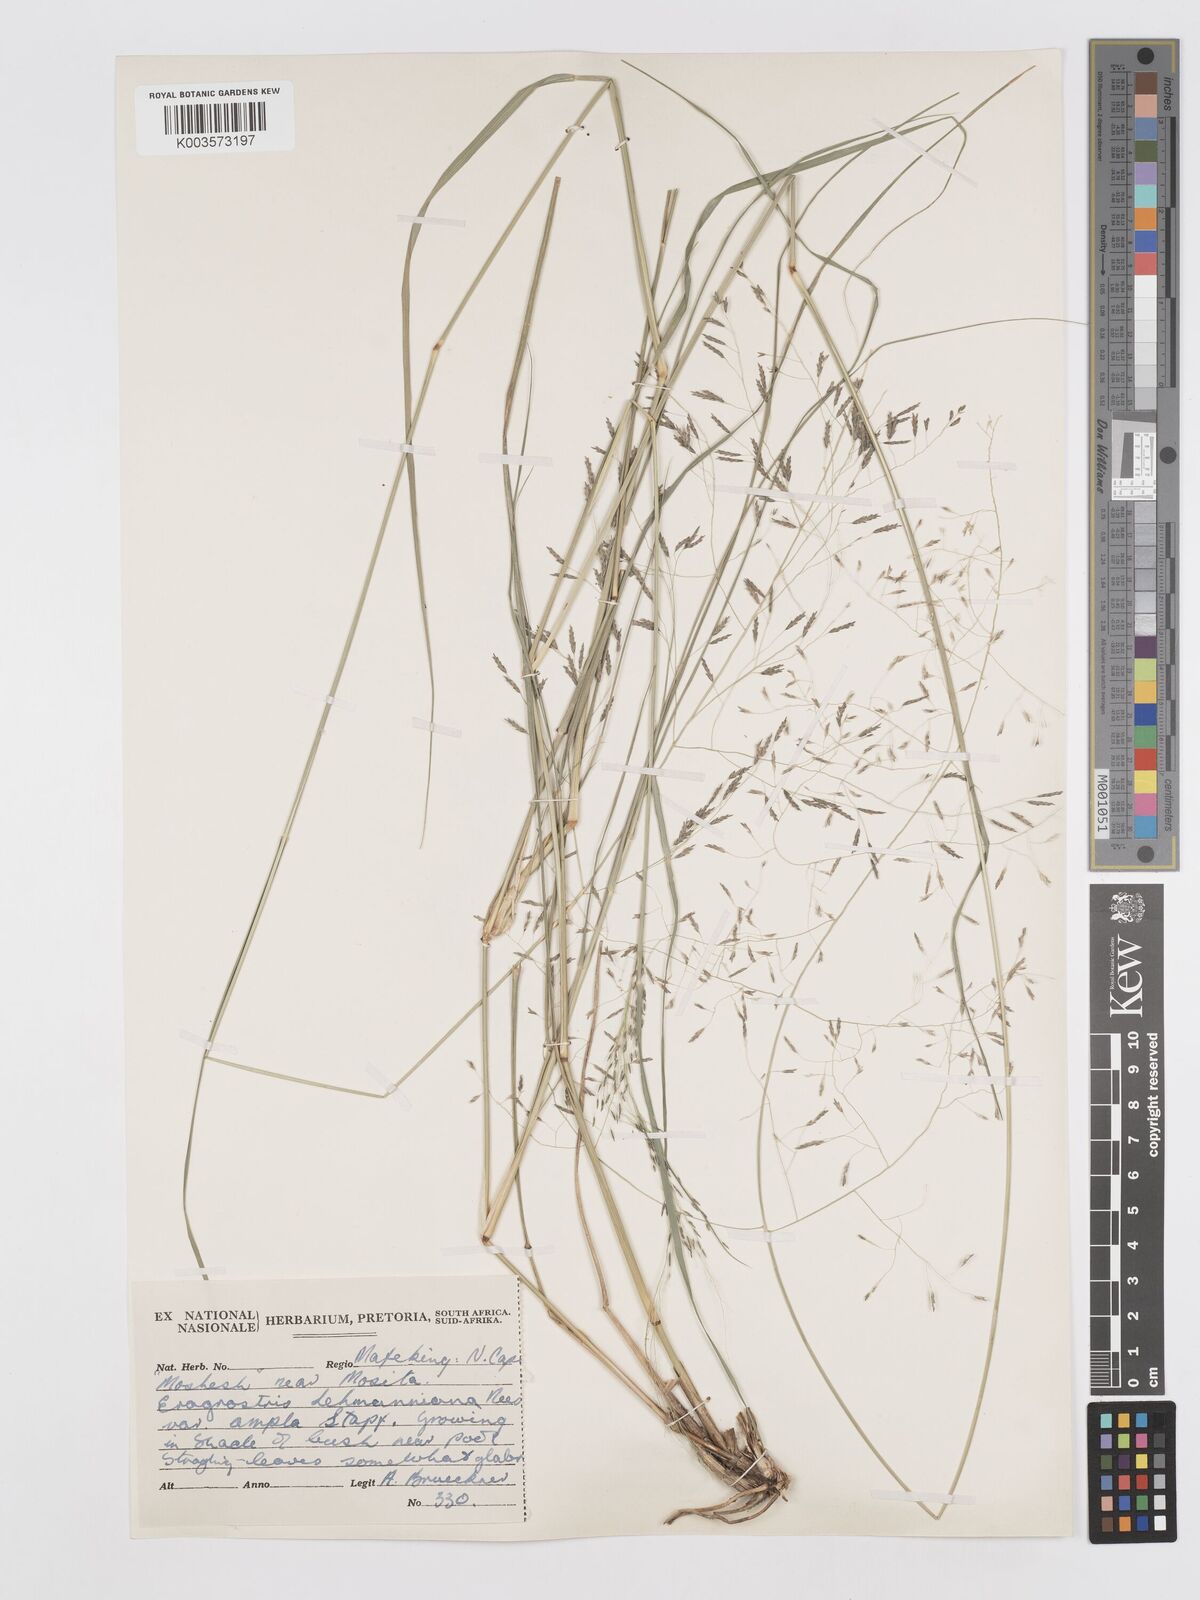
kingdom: Plantae
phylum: Tracheophyta
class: Liliopsida
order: Poales
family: Poaceae
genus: Eragrostis
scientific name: Eragrostis curvula
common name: African love-grass
